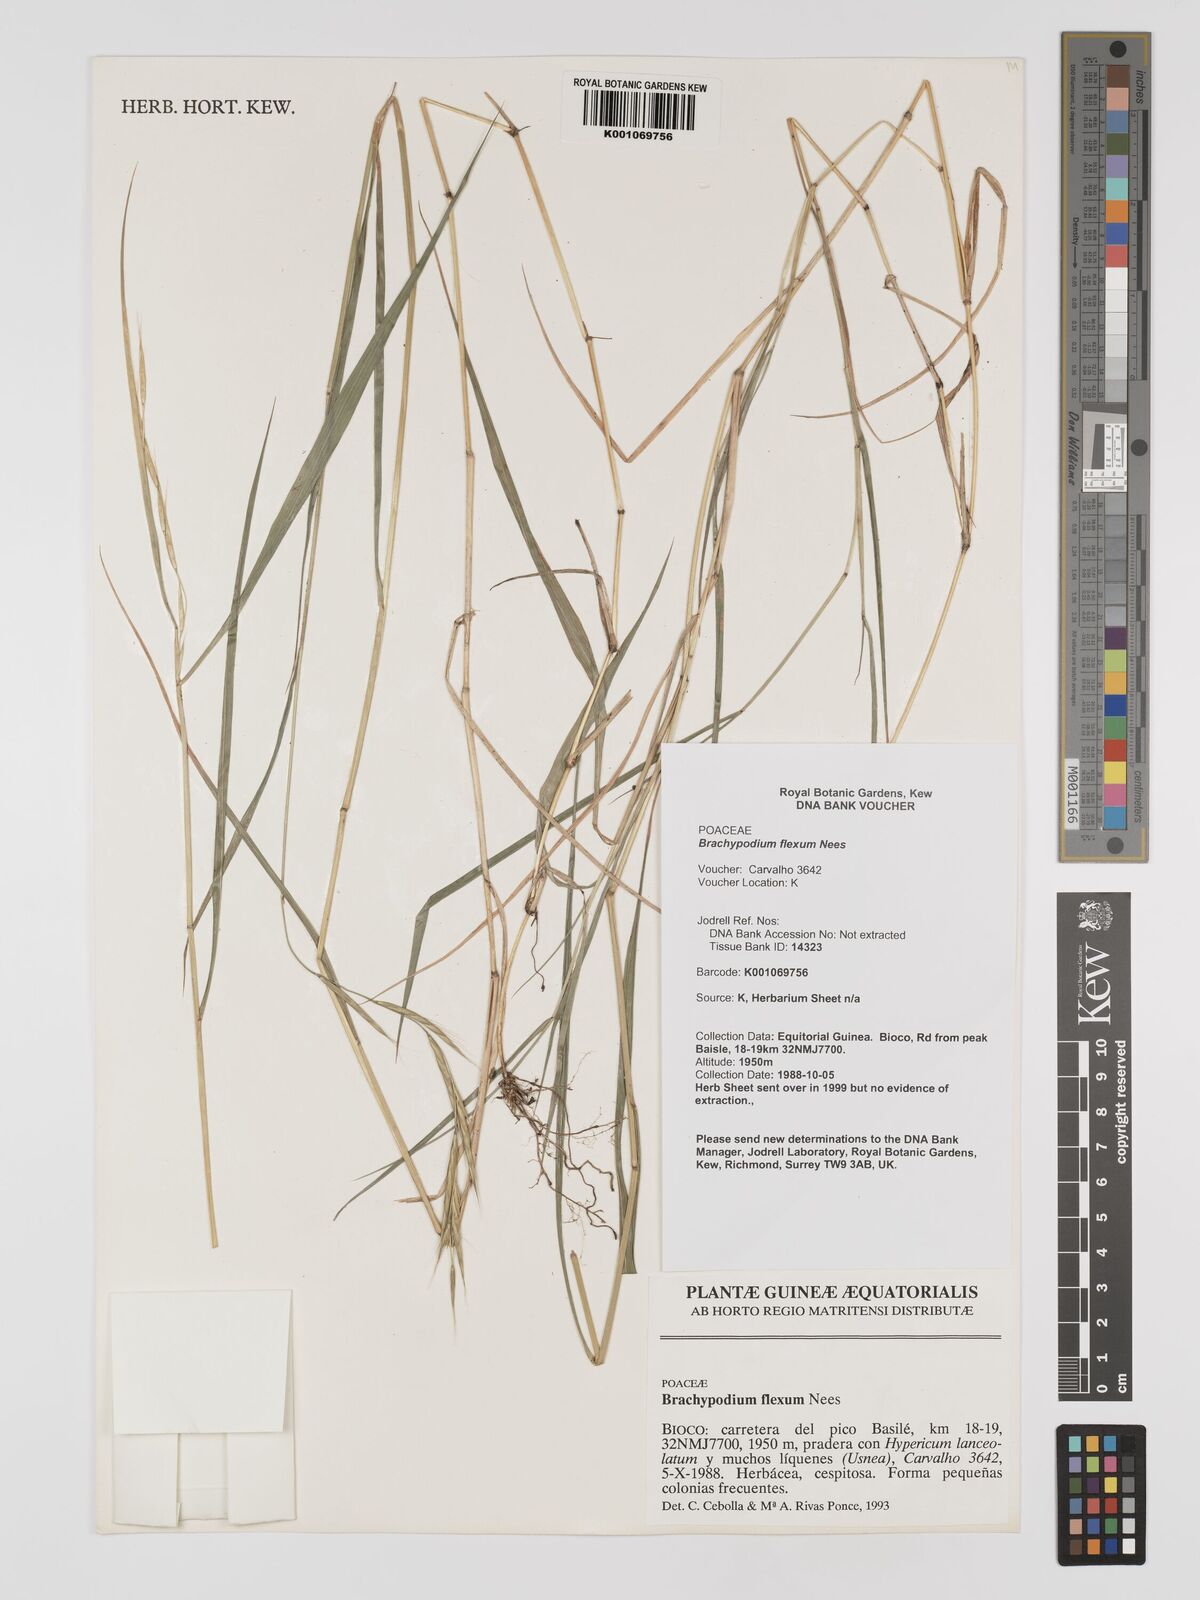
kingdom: Plantae
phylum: Tracheophyta
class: Liliopsida
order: Poales
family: Poaceae
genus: Brachypodium
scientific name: Brachypodium flexum
